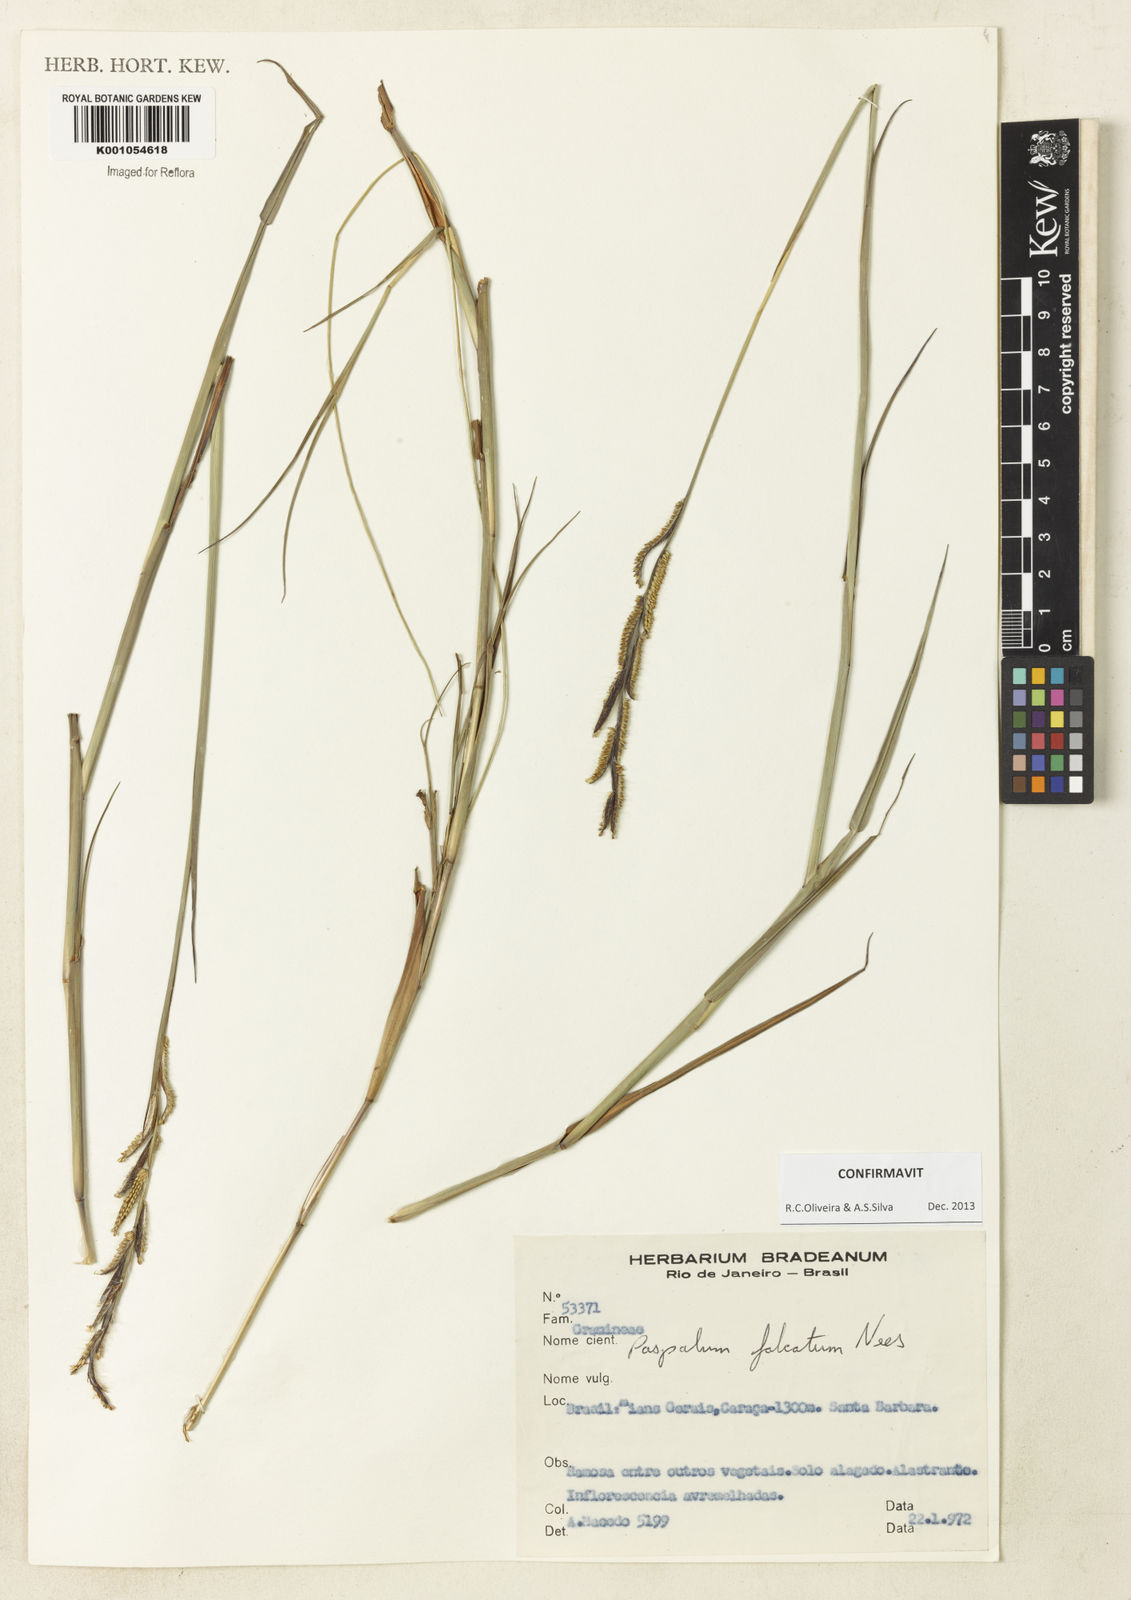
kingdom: Plantae
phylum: Tracheophyta
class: Liliopsida
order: Poales
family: Poaceae
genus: Paspalum
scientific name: Paspalum falcatum
